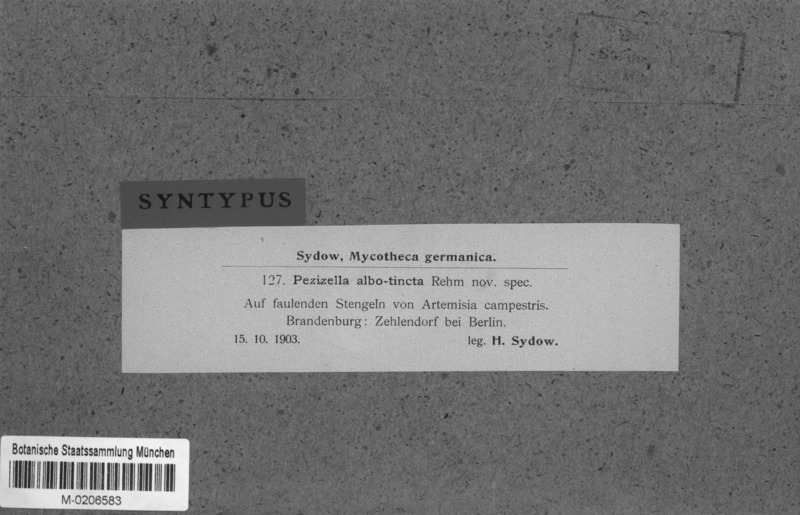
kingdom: Fungi
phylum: Ascomycota
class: Leotiomycetes
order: Helotiales
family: Pezizellaceae
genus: Pezizella
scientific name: Pezizella albotincta
